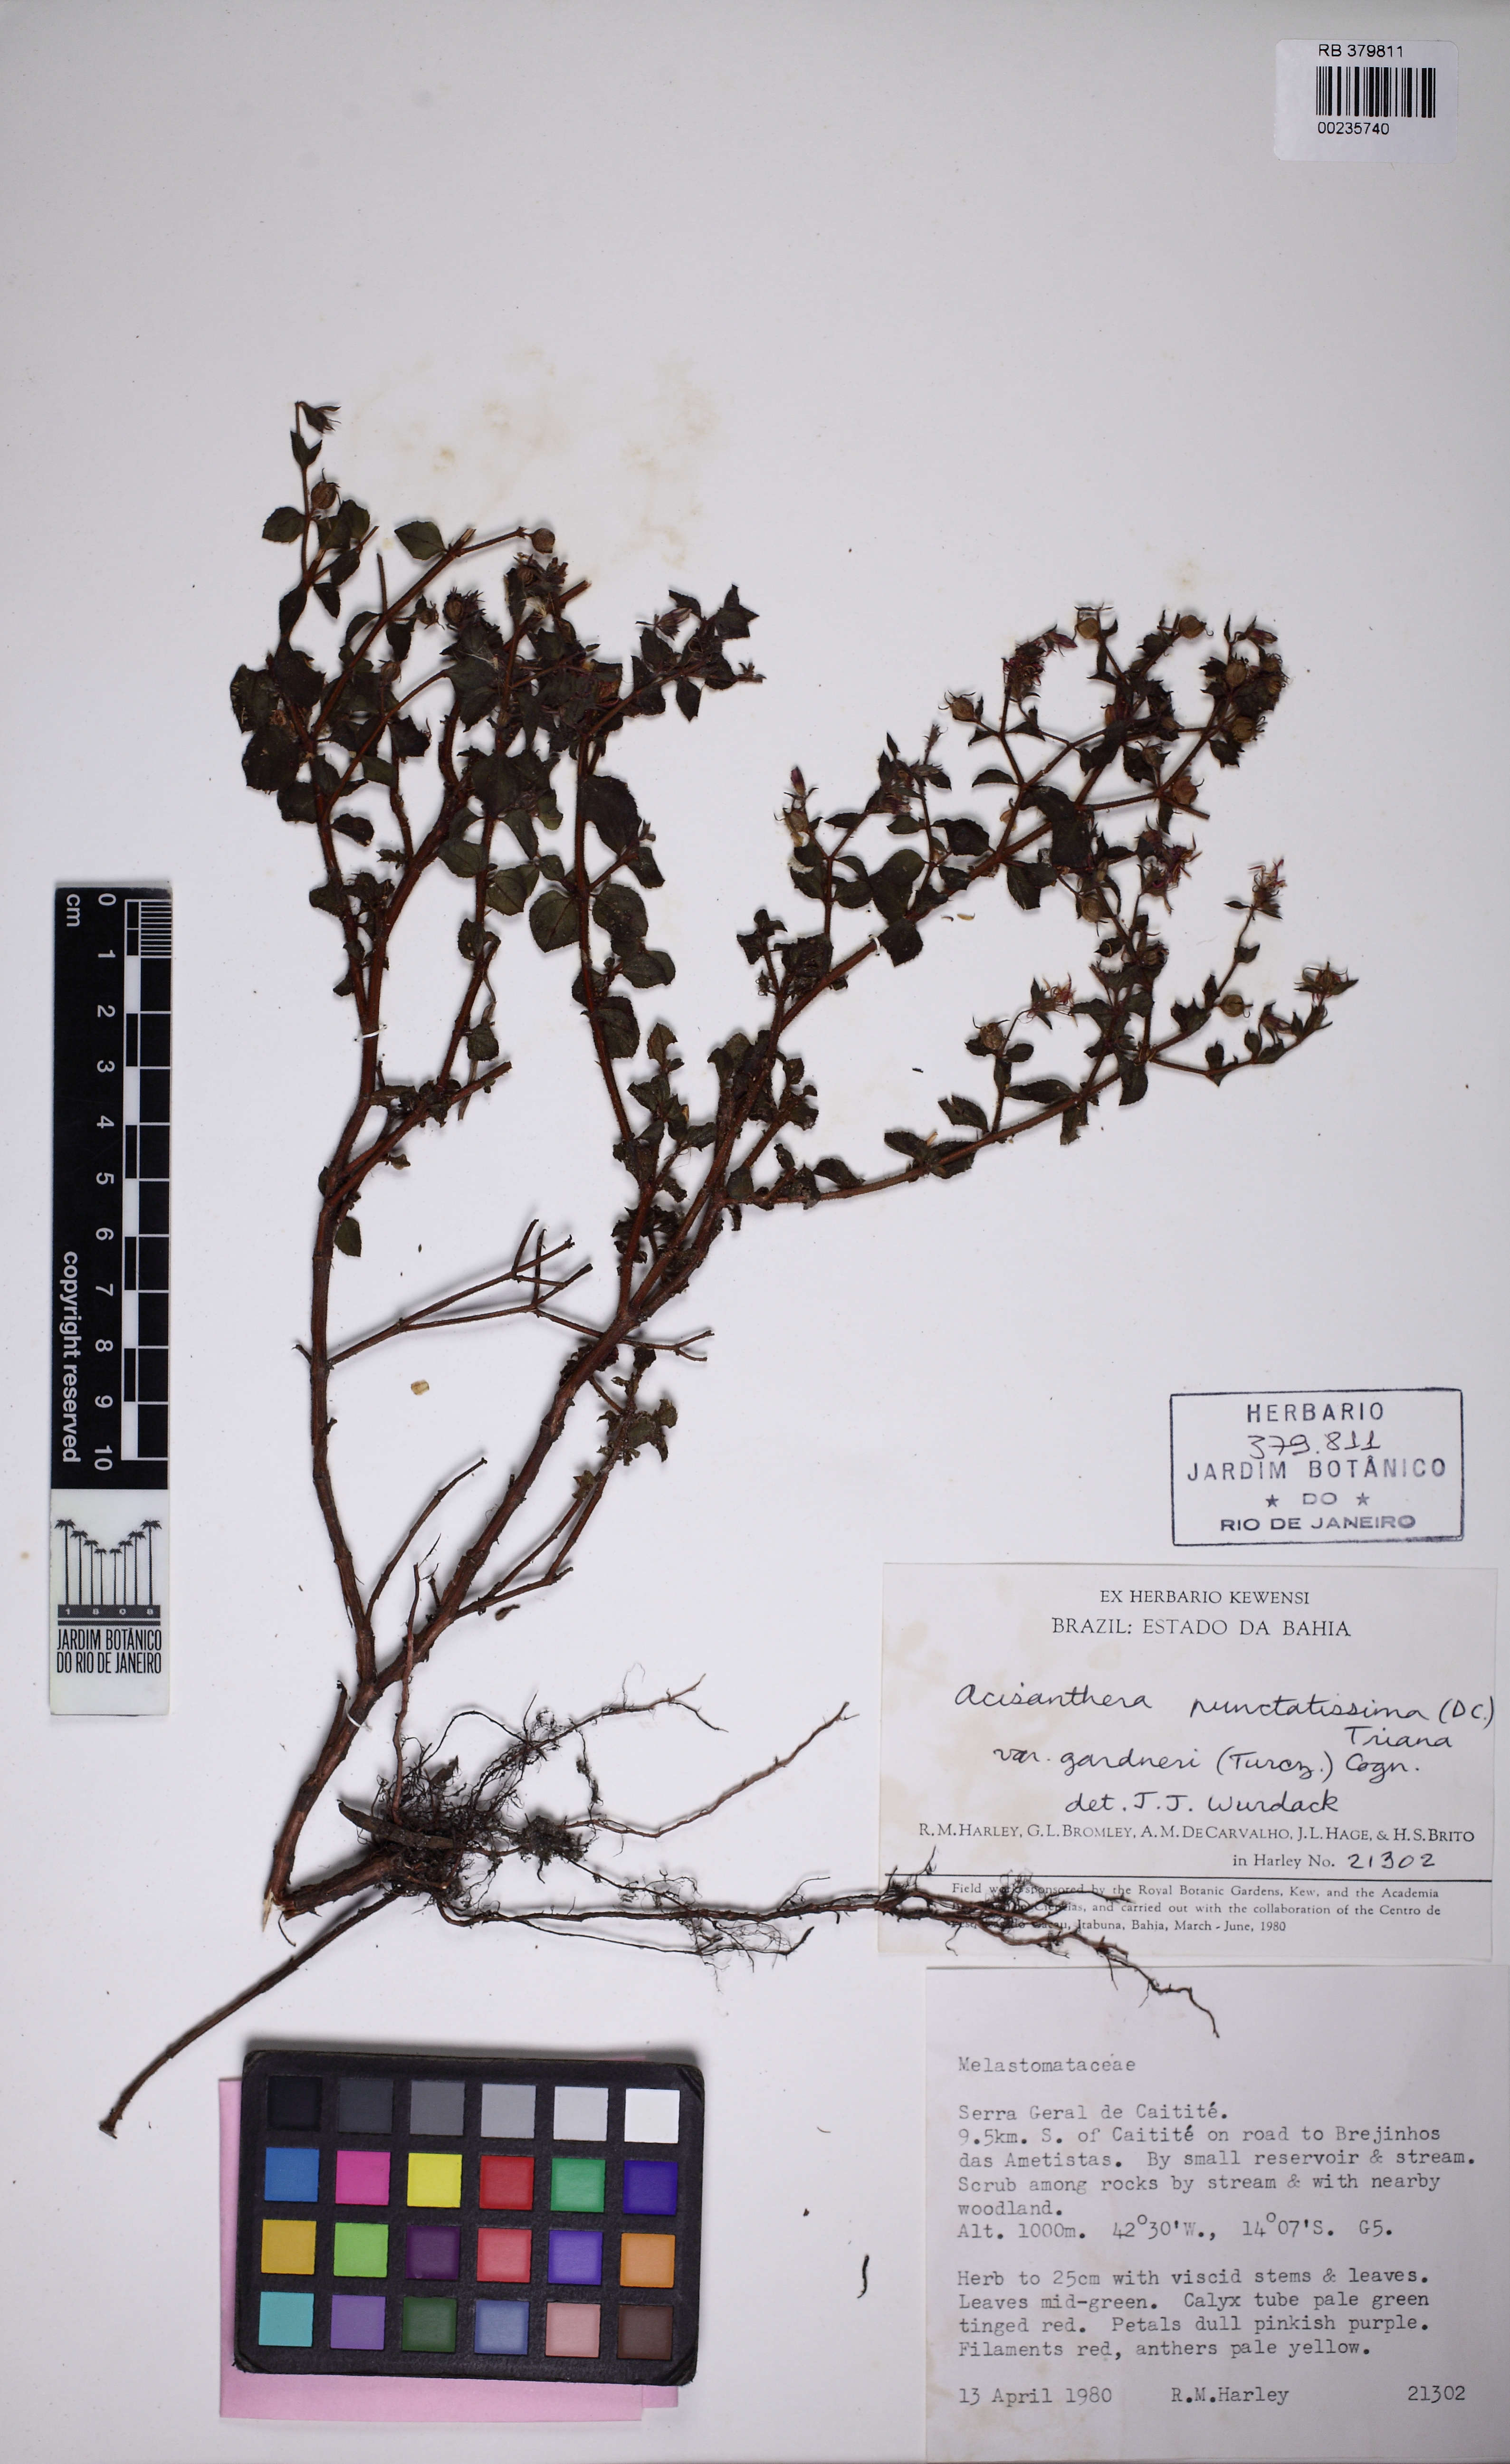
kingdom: Plantae
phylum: Tracheophyta
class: Magnoliopsida
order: Myrtales
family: Melastomataceae
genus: Acisanthera
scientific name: Acisanthera quadrata
